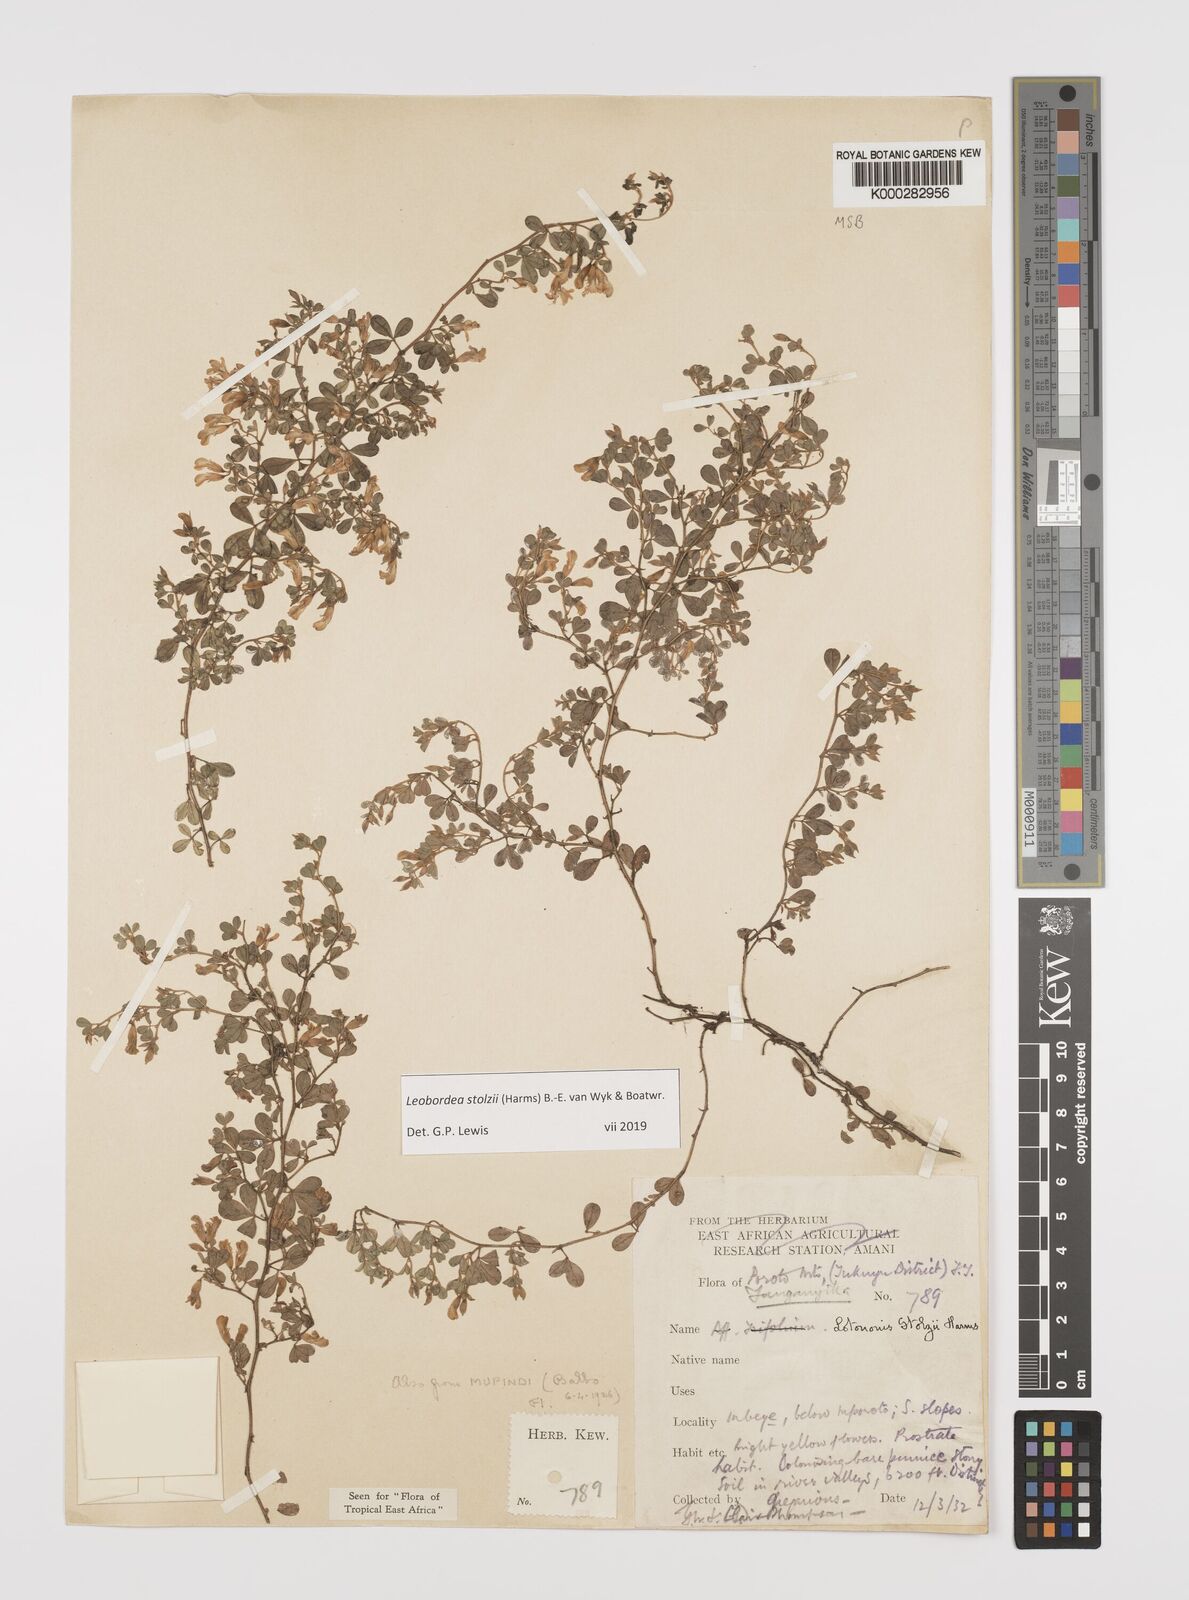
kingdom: Plantae
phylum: Tracheophyta
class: Magnoliopsida
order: Fabales
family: Fabaceae
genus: Leobordea
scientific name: Leobordea stolzii
